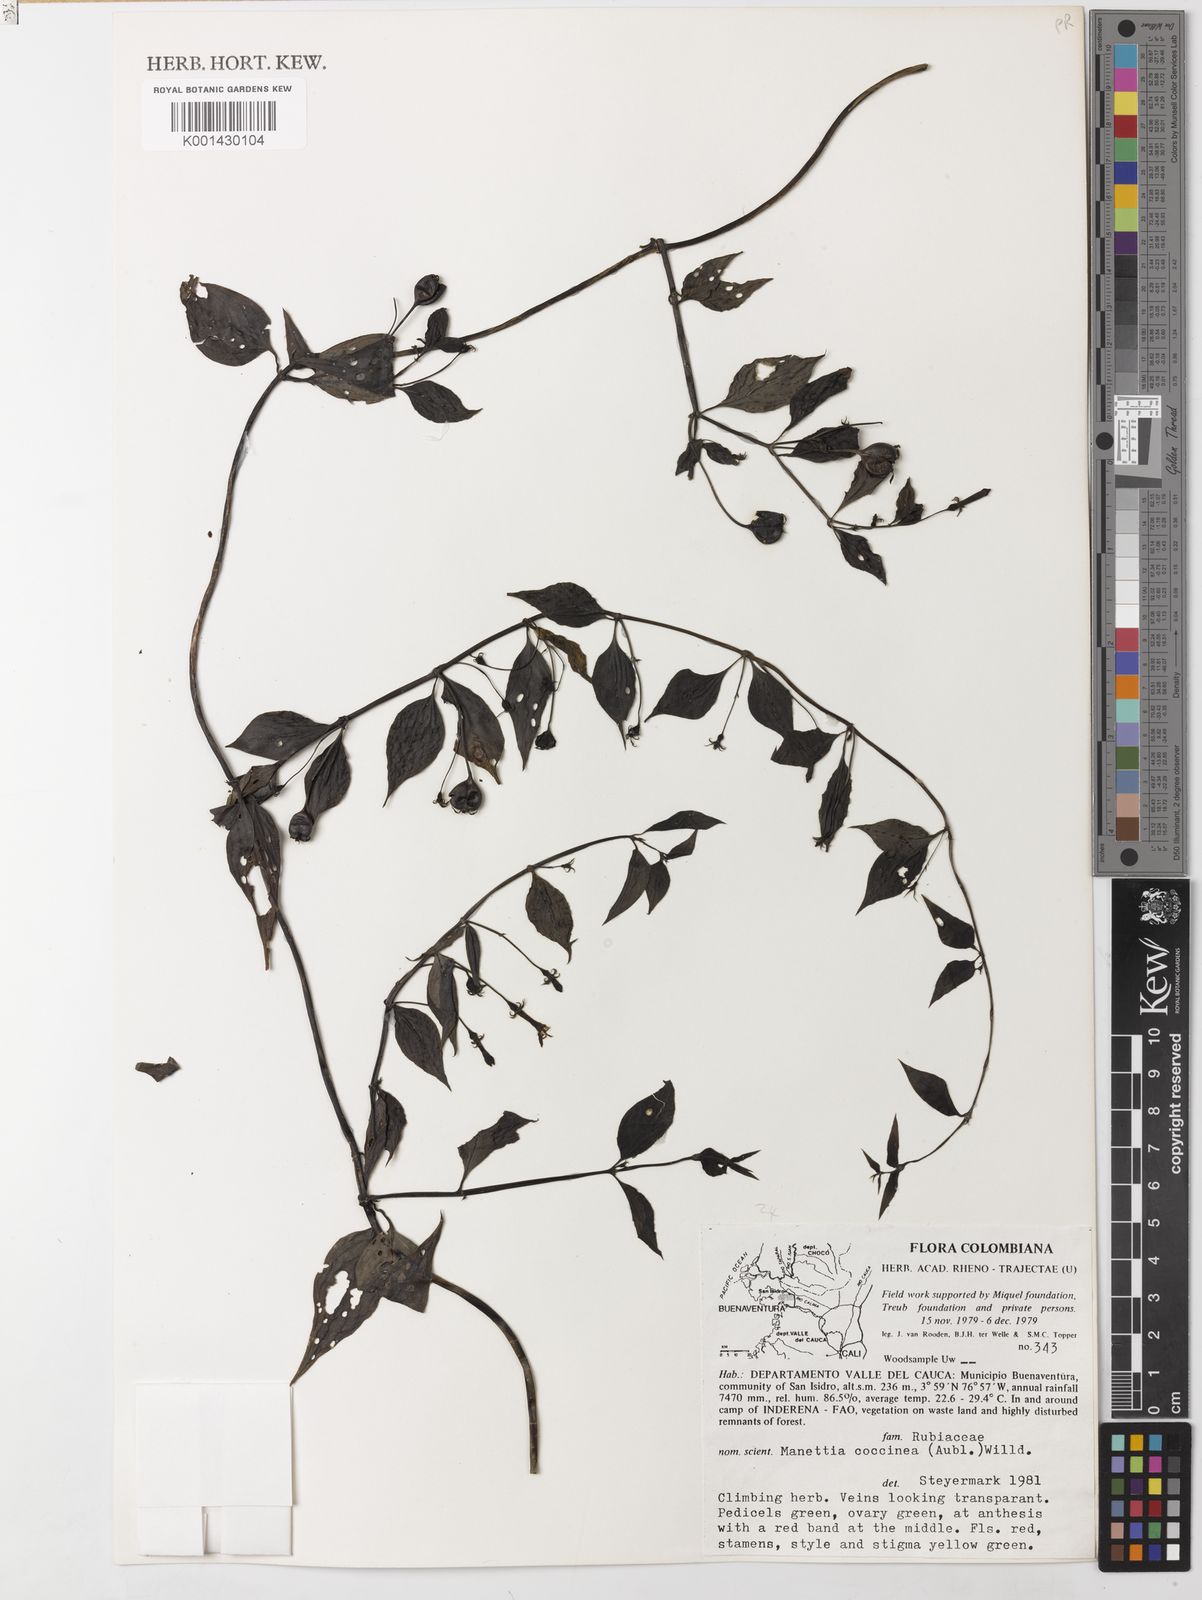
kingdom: Plantae
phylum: Tracheophyta
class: Magnoliopsida
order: Gentianales
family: Rubiaceae
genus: Manettia
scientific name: Manettia
